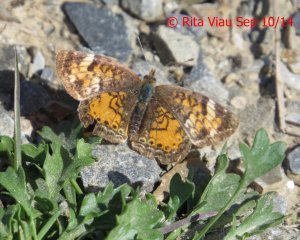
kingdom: Animalia
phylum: Arthropoda
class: Insecta
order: Lepidoptera
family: Nymphalidae
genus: Phyciodes
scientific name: Phyciodes tharos
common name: Northern Crescent
